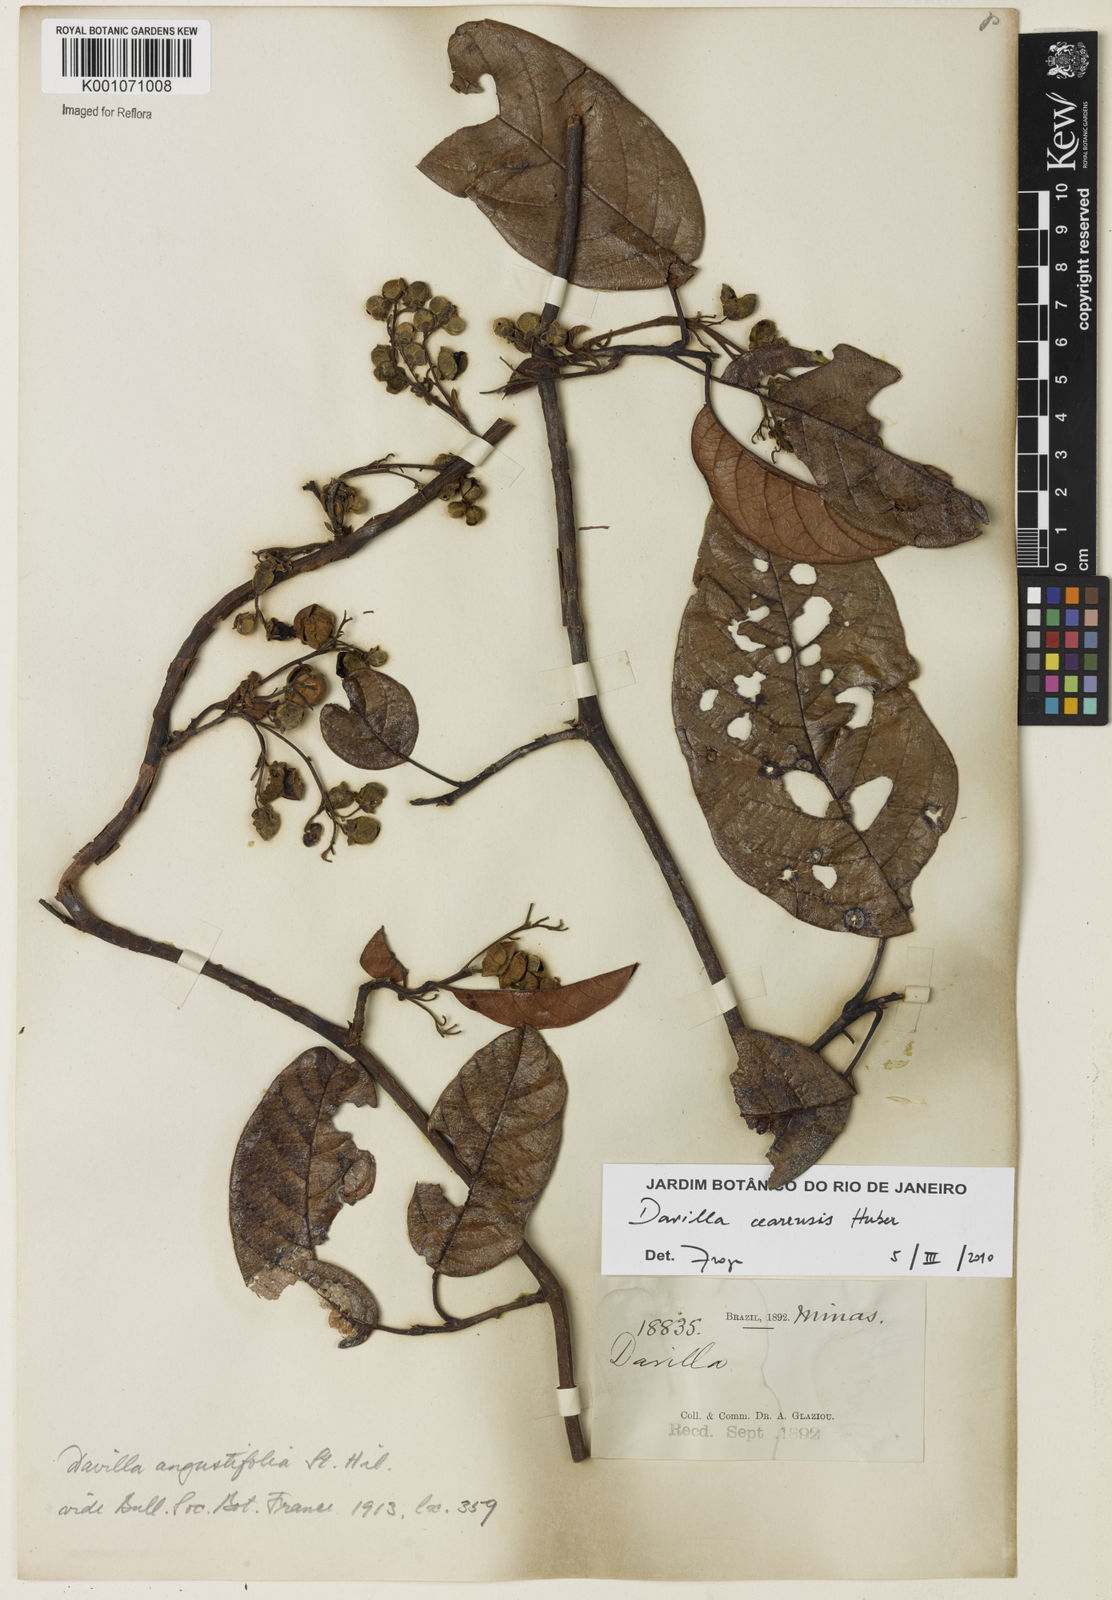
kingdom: Plantae
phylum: Tracheophyta
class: Magnoliopsida
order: Dilleniales
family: Dilleniaceae
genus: Davilla
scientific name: Davilla cearensis
